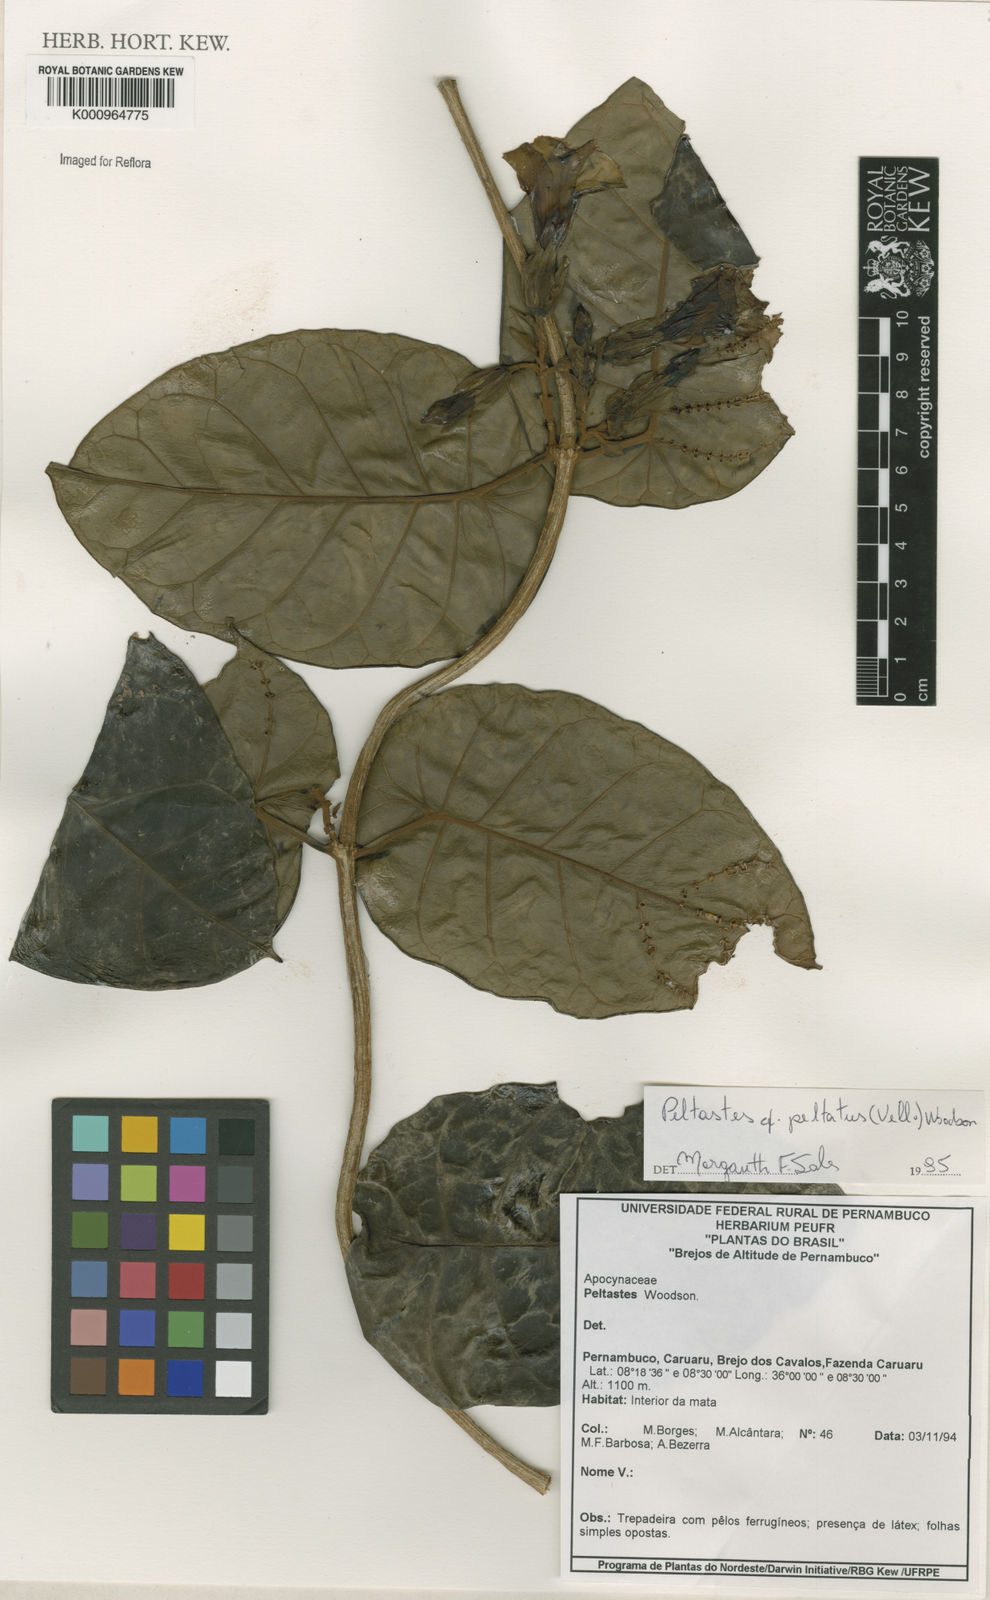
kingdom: Plantae
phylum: Tracheophyta
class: Magnoliopsida
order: Gentianales
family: Apocynaceae
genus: Macropharynx
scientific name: Macropharynx
